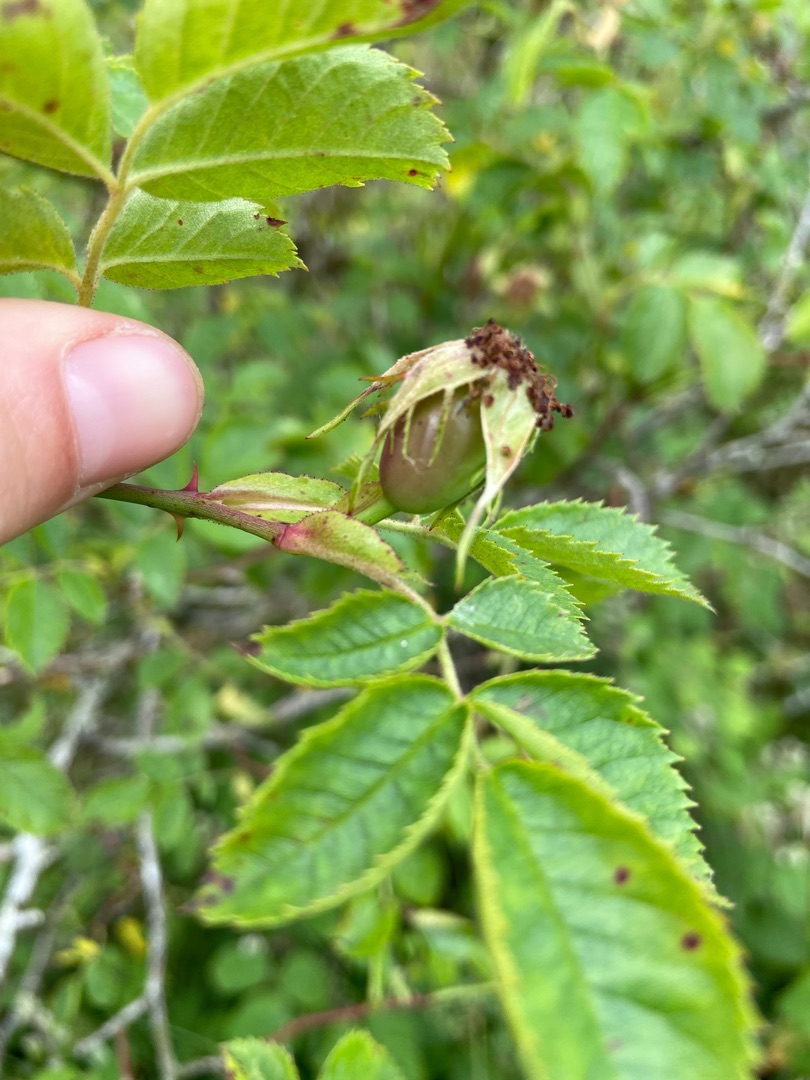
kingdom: Plantae
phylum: Tracheophyta
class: Magnoliopsida
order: Rosales
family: Rosaceae
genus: Rosa
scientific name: Rosa balsamica
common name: Rubladet rose
